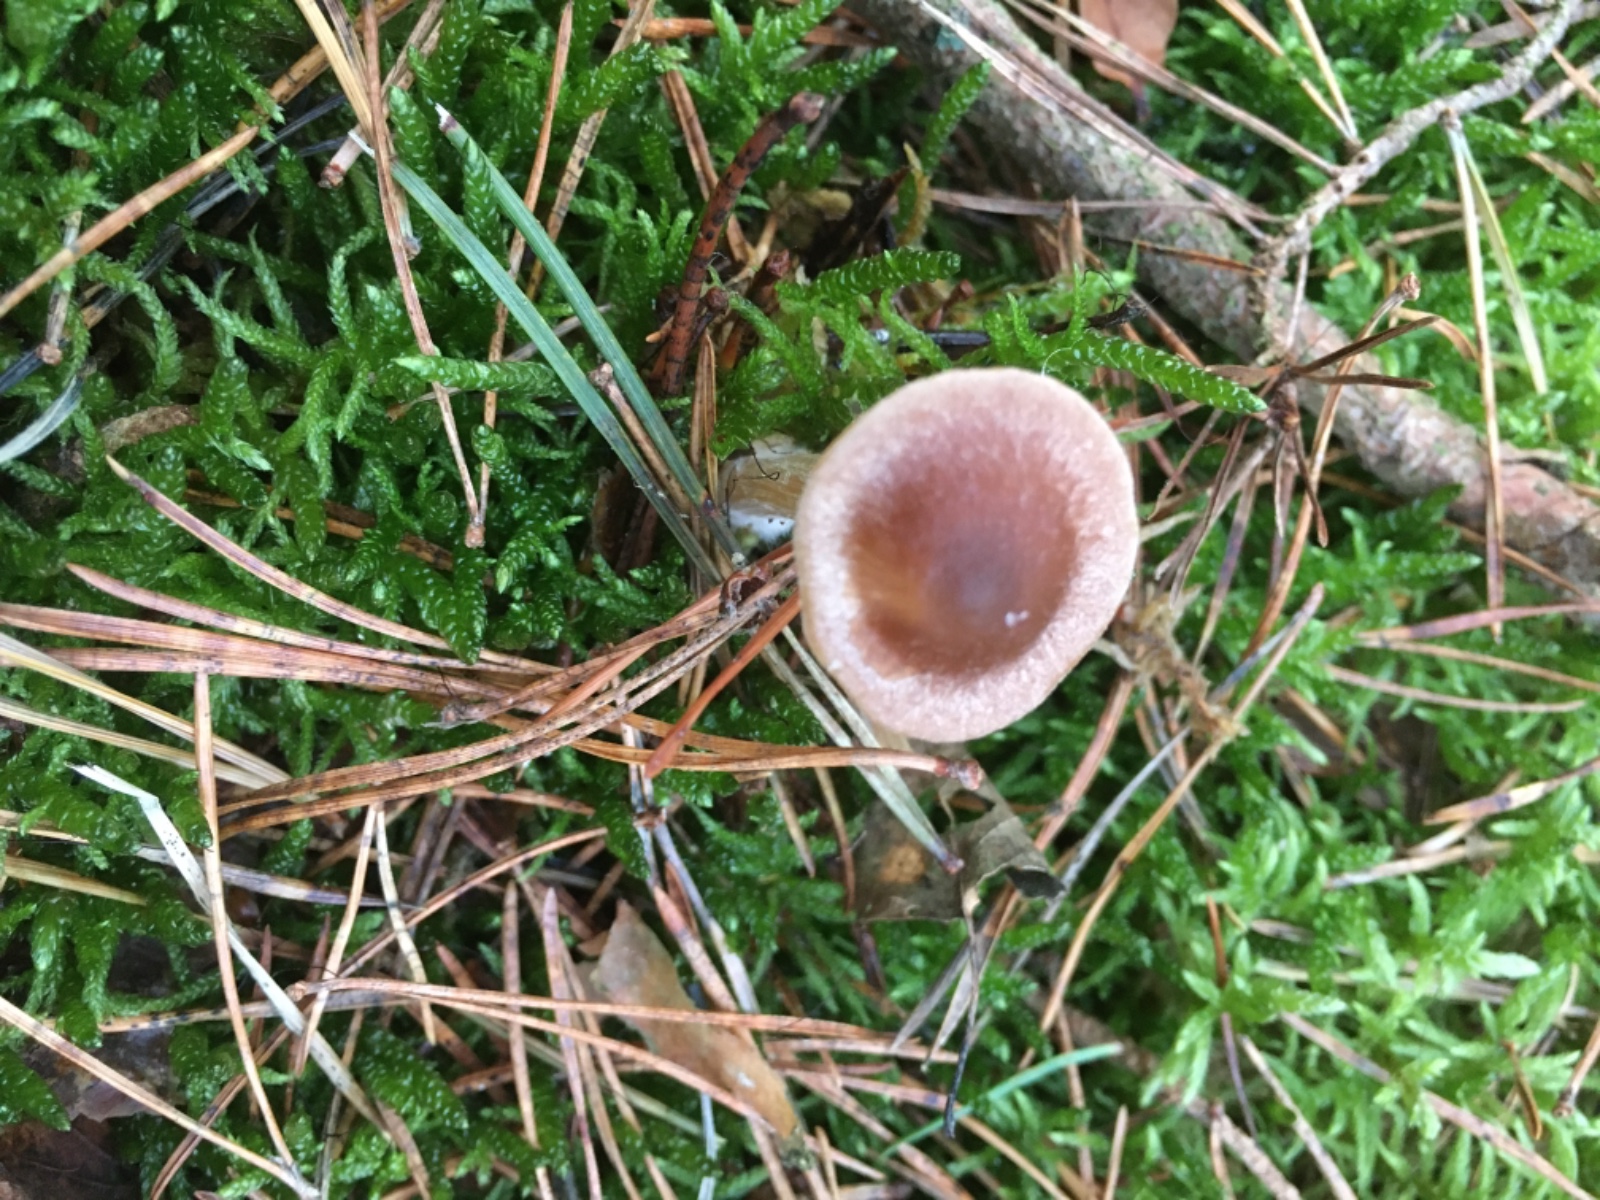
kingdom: Fungi
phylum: Basidiomycota
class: Agaricomycetes
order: Agaricales
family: Entolomataceae
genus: Entoloma
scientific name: Entoloma
